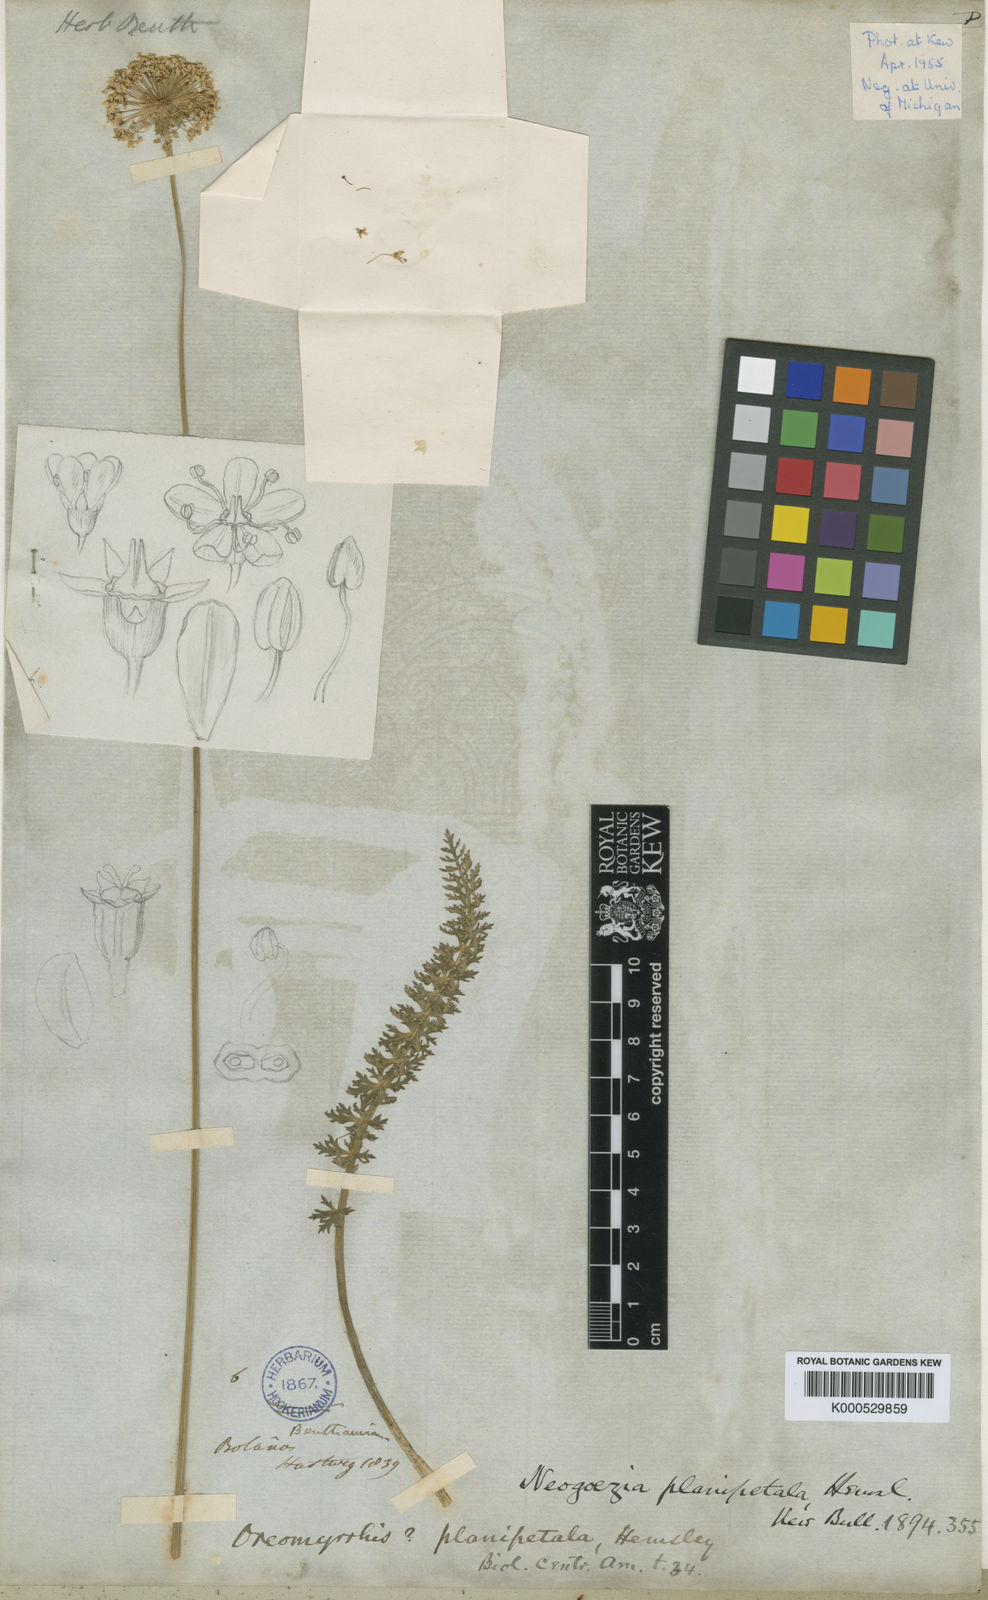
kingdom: Plantae
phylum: Tracheophyta
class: Magnoliopsida
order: Apiales
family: Apiaceae
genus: Neogoezia
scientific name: Neogoezia planipetala
